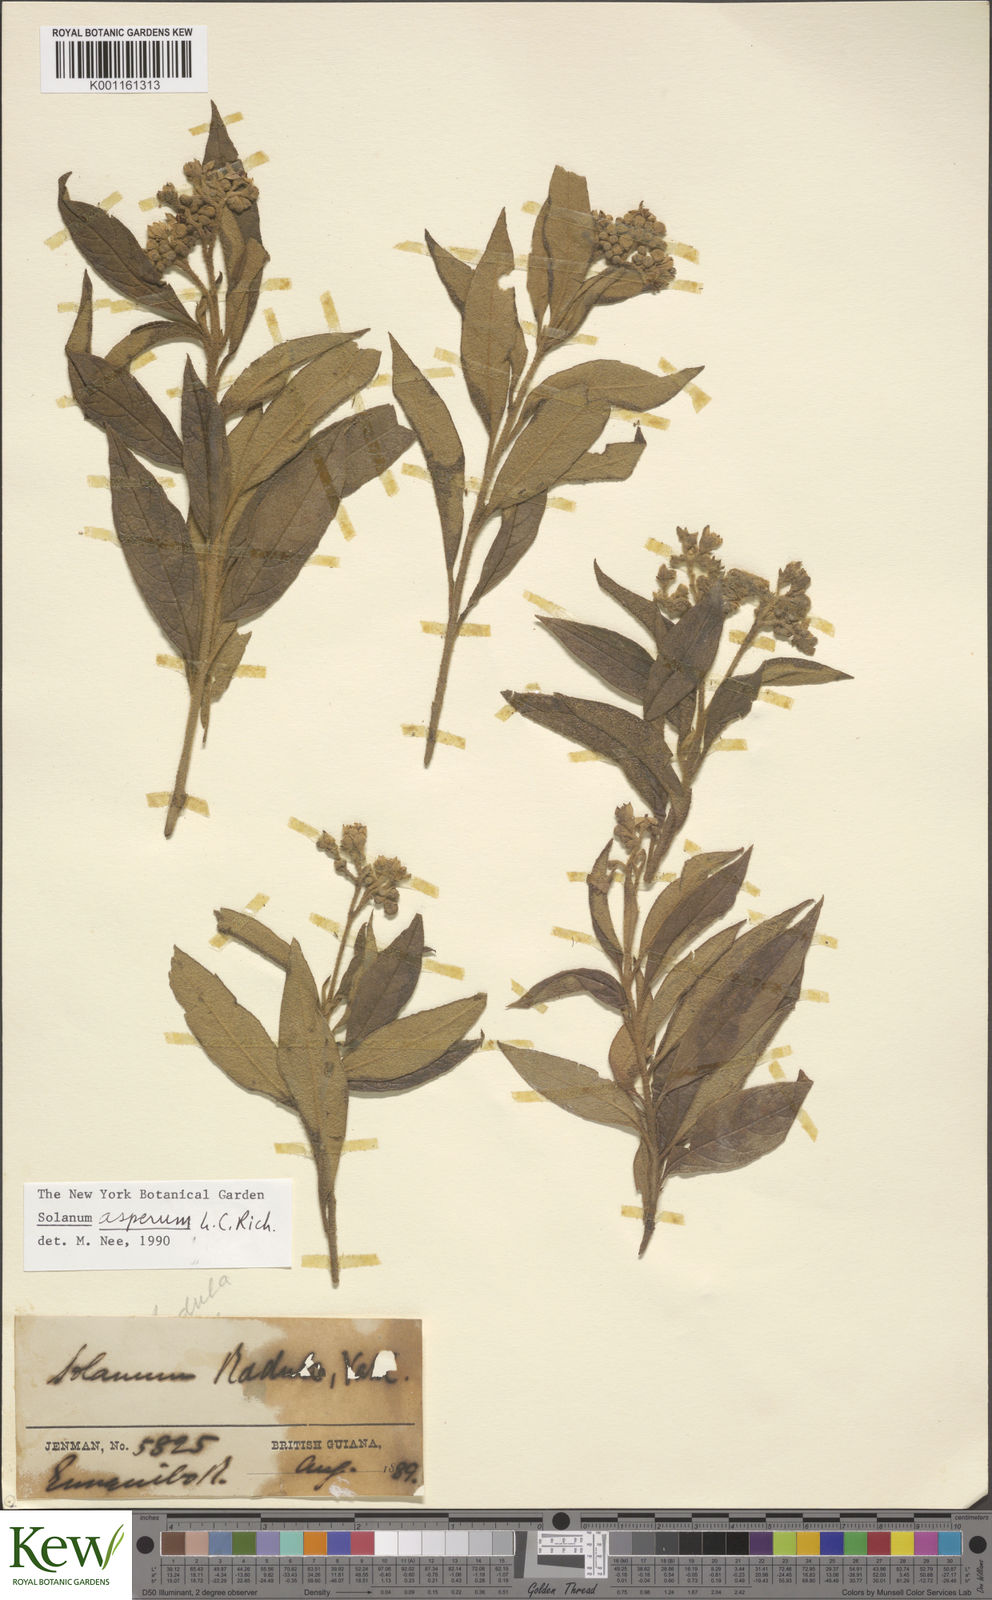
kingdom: Plantae
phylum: Tracheophyta
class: Magnoliopsida
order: Solanales
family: Solanaceae
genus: Solanum
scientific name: Solanum asperum
